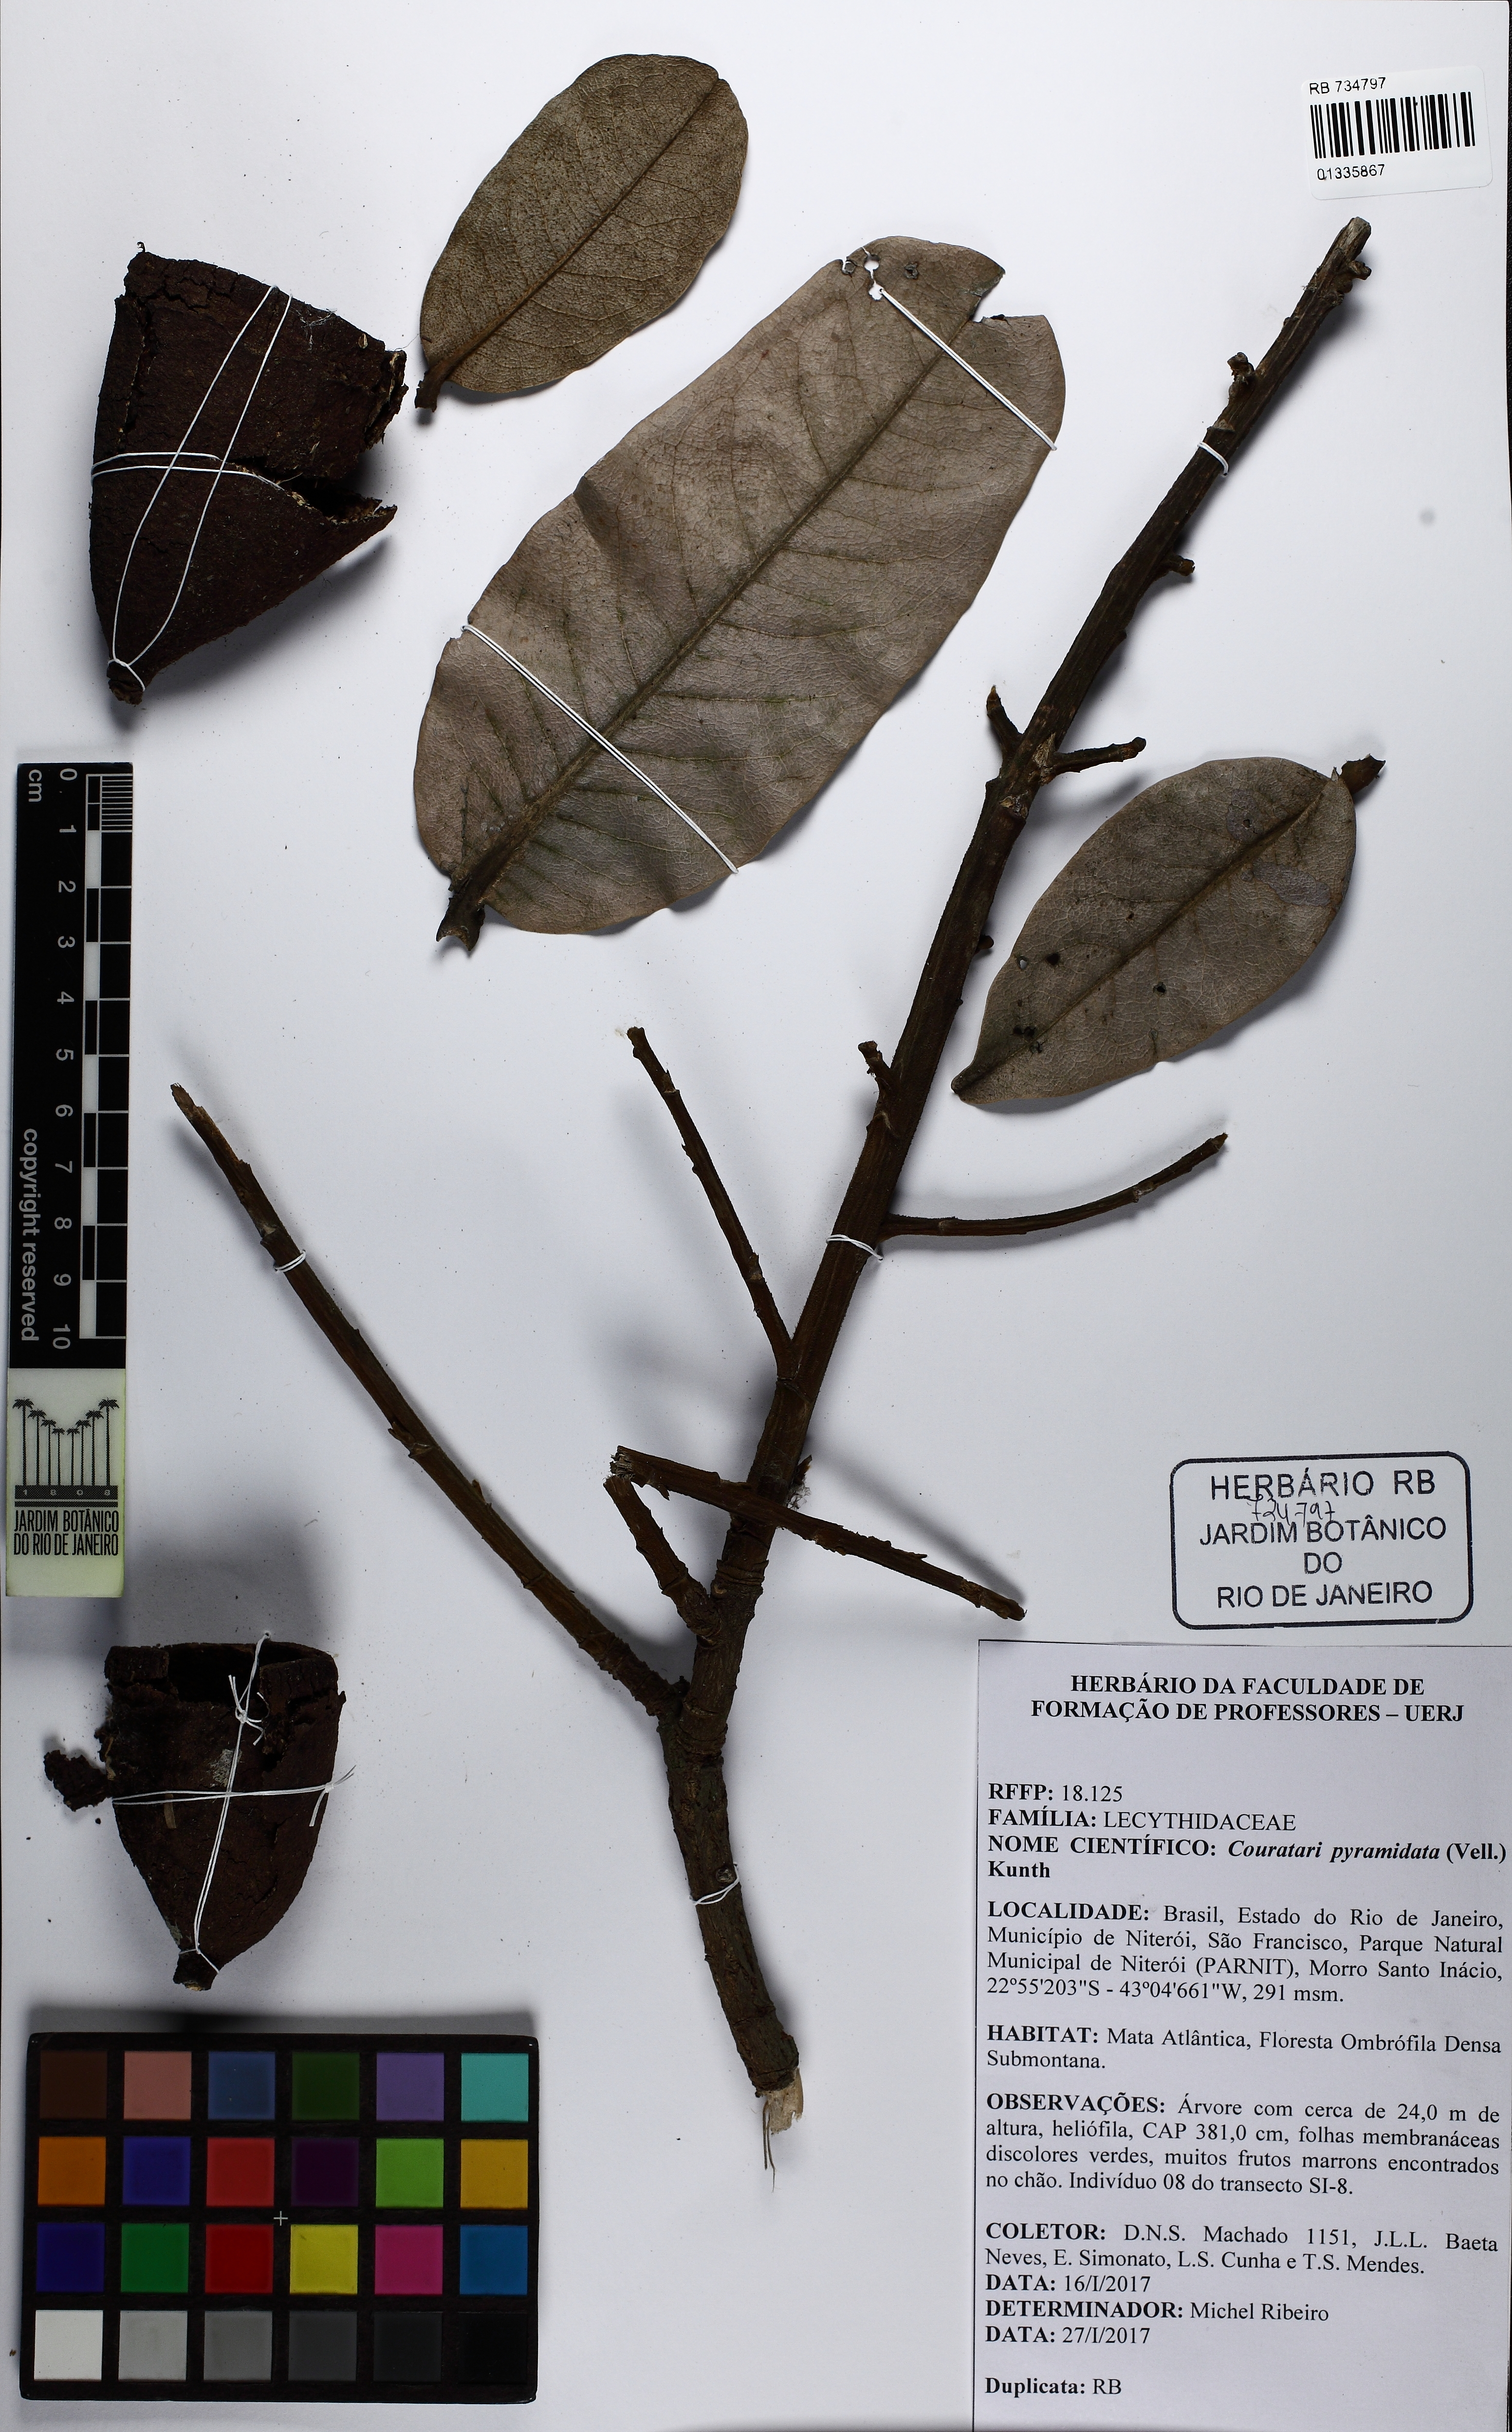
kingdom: Plantae
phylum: Tracheophyta
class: Magnoliopsida
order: Ericales
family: Lecythidaceae
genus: Couratari
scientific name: Couratari pyramidata
